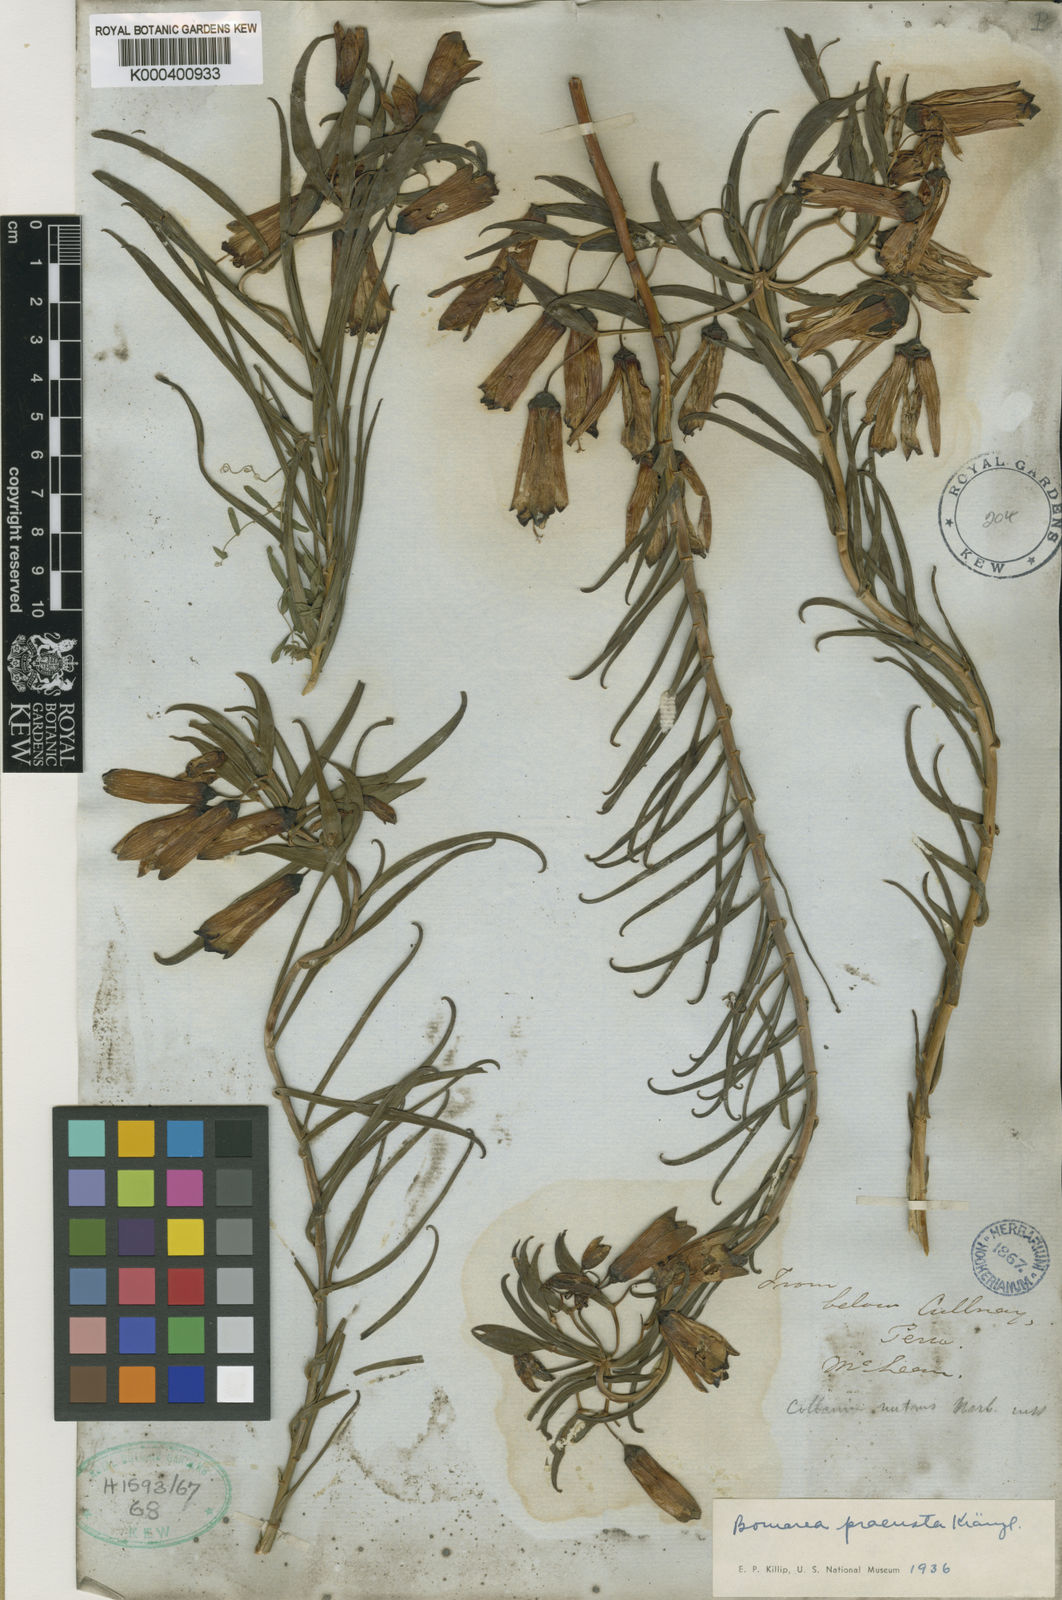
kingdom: Plantae
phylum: Tracheophyta
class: Liliopsida
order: Liliales
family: Alstroemeriaceae
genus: Bomarea
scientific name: Bomarea parvifolia
